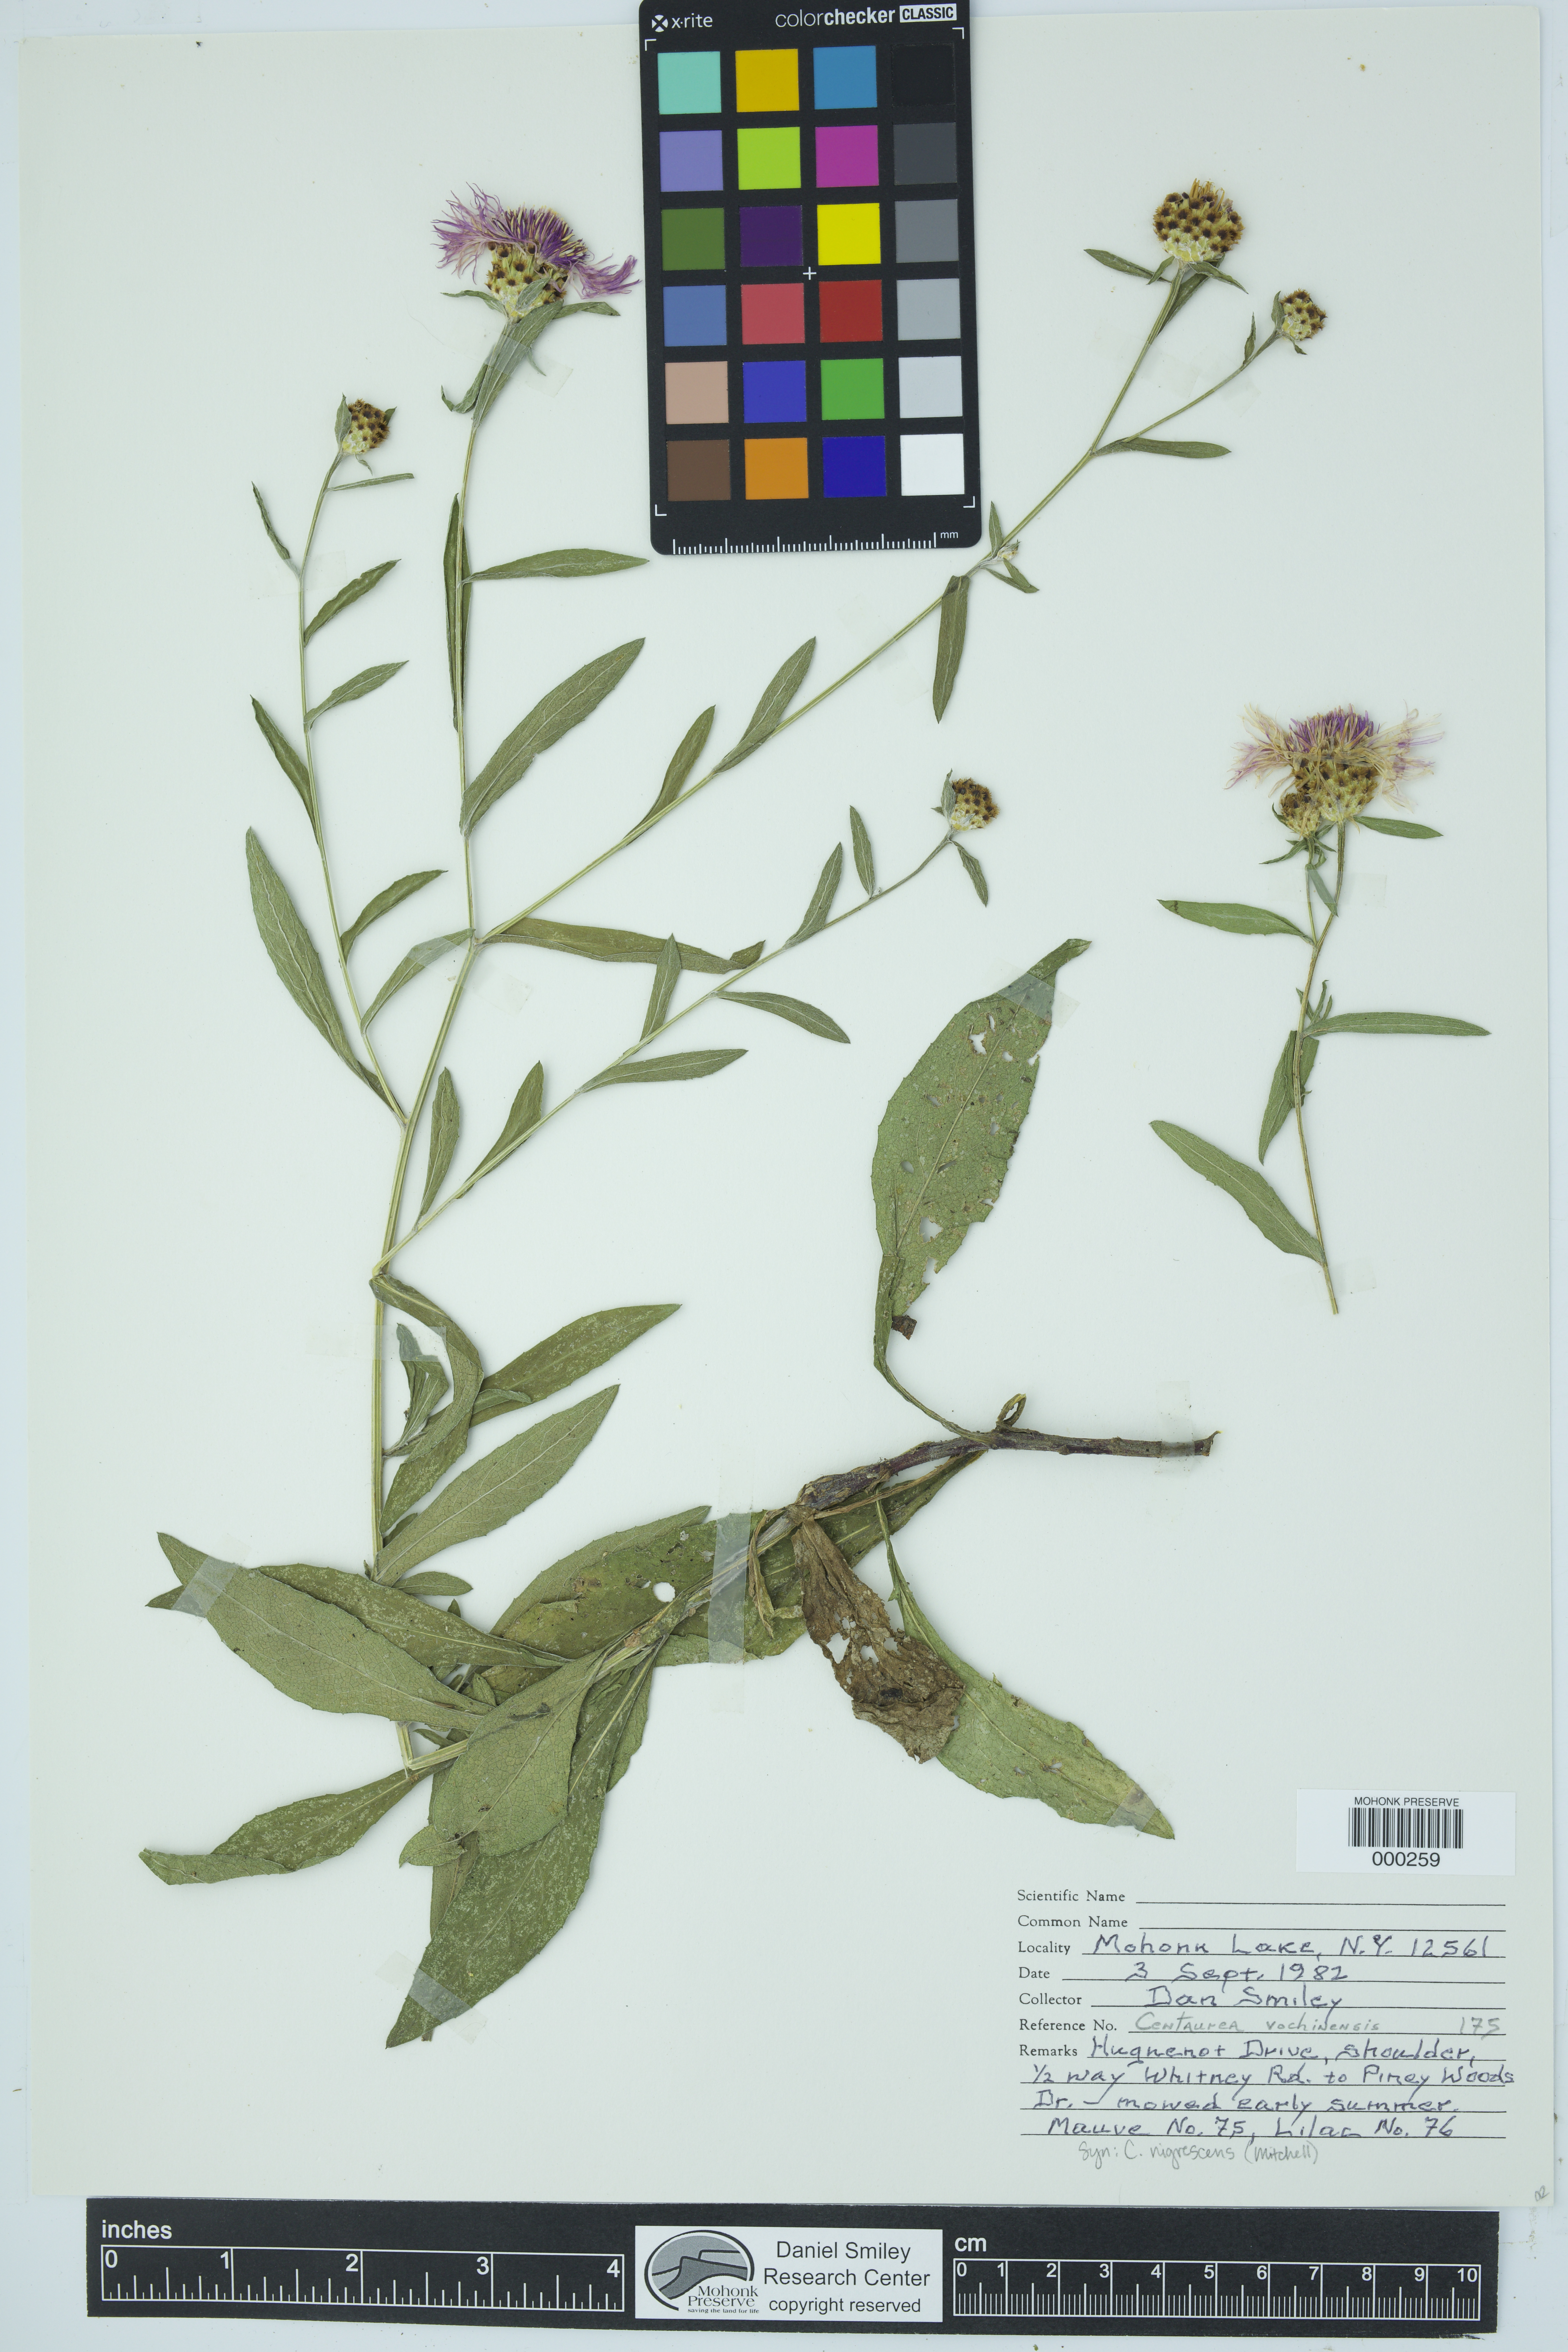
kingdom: Plantae
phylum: Tracheophyta
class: Magnoliopsida
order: Asterales
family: Asteraceae
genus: Centaurea
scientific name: Centaurea nigrescens
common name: Tyrol knapweed
